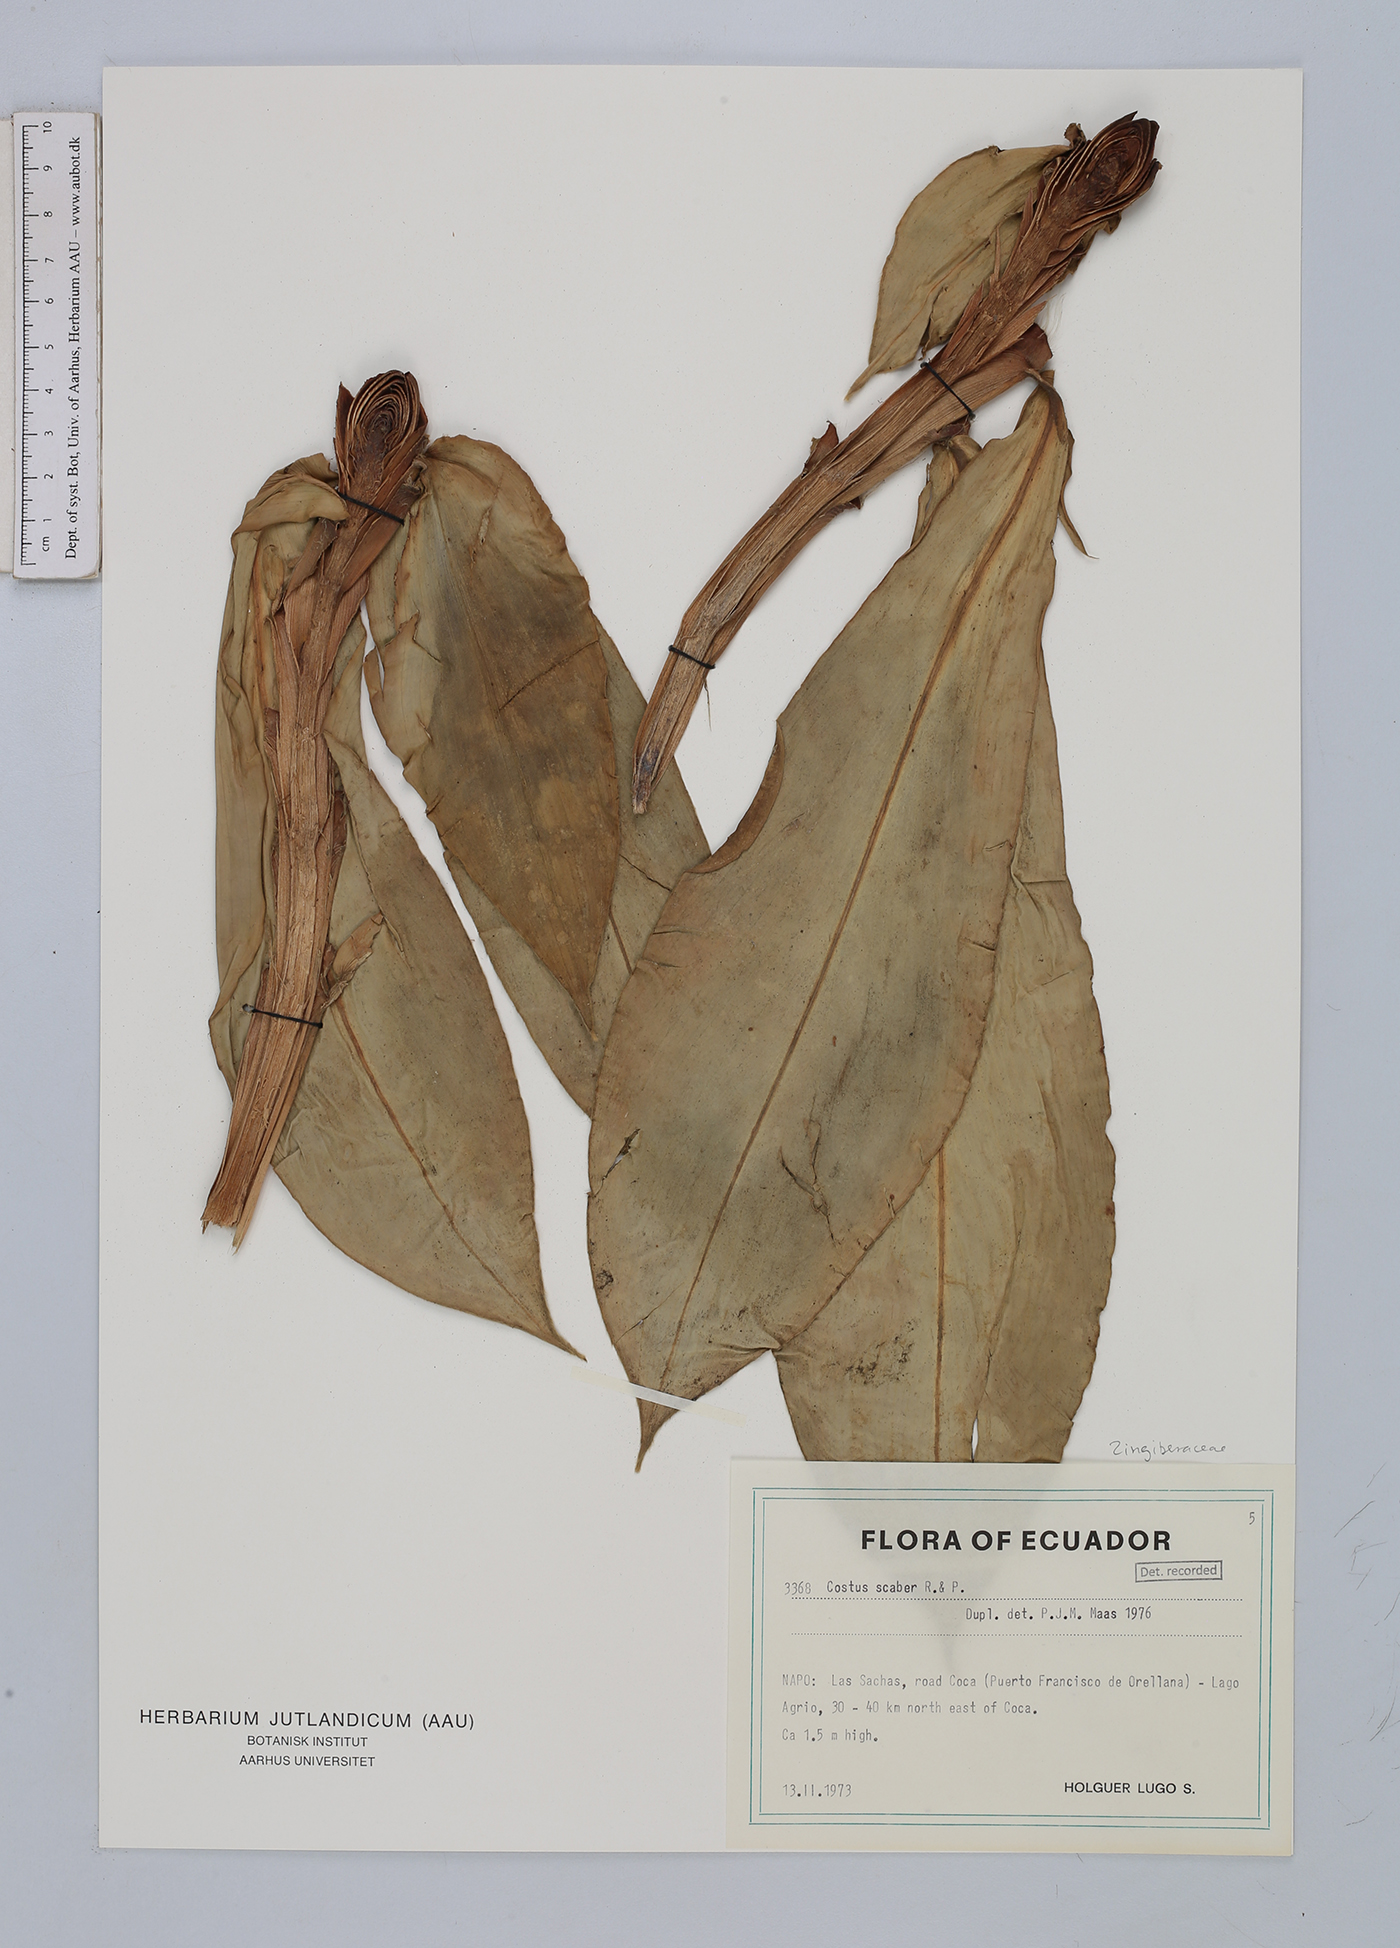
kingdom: Plantae
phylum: Tracheophyta
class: Liliopsida
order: Zingiberales
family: Costaceae
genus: Costus
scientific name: Costus scaber
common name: Spiral head ginger
